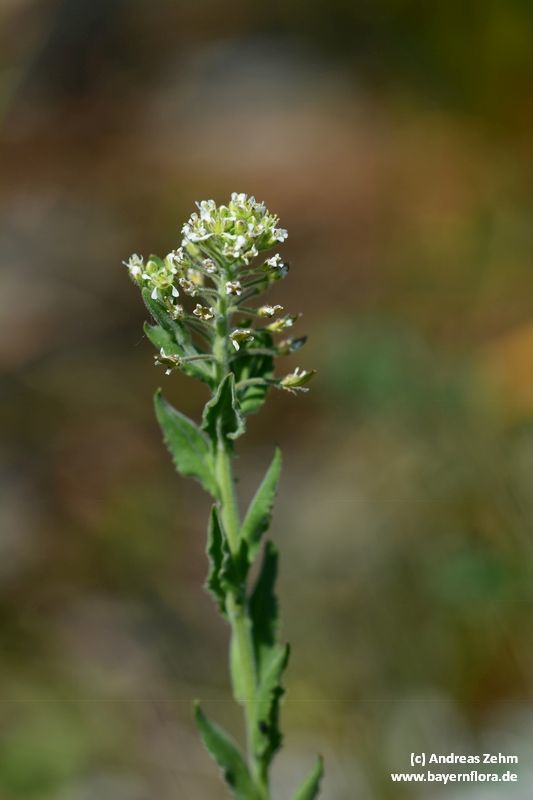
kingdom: Plantae
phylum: Tracheophyta
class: Magnoliopsida
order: Brassicales
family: Brassicaceae
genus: Lepidium
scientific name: Lepidium campestre
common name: Field pepperwort
